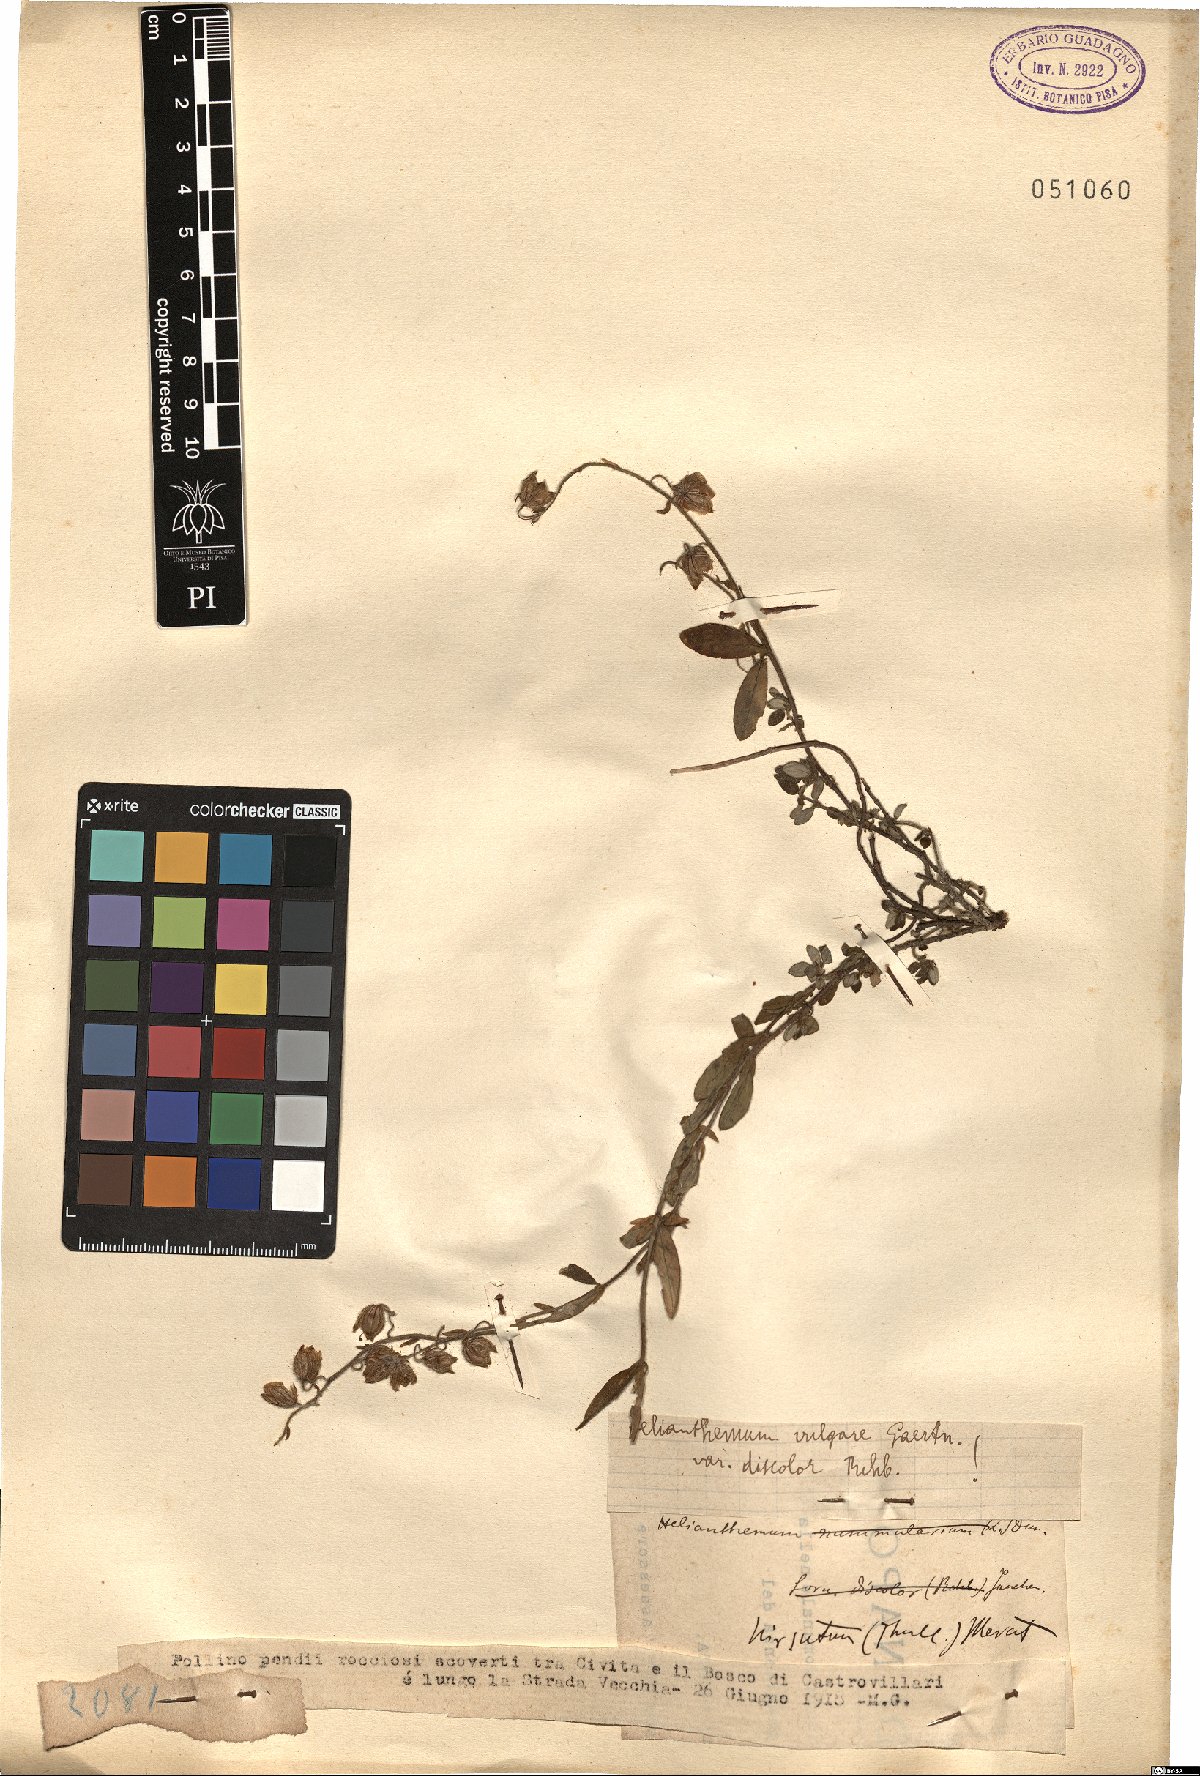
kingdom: Plantae
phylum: Tracheophyta
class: Magnoliopsida
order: Malvales
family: Cistaceae
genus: Helianthemum
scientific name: Helianthemum nummularium
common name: Common rock-rose
